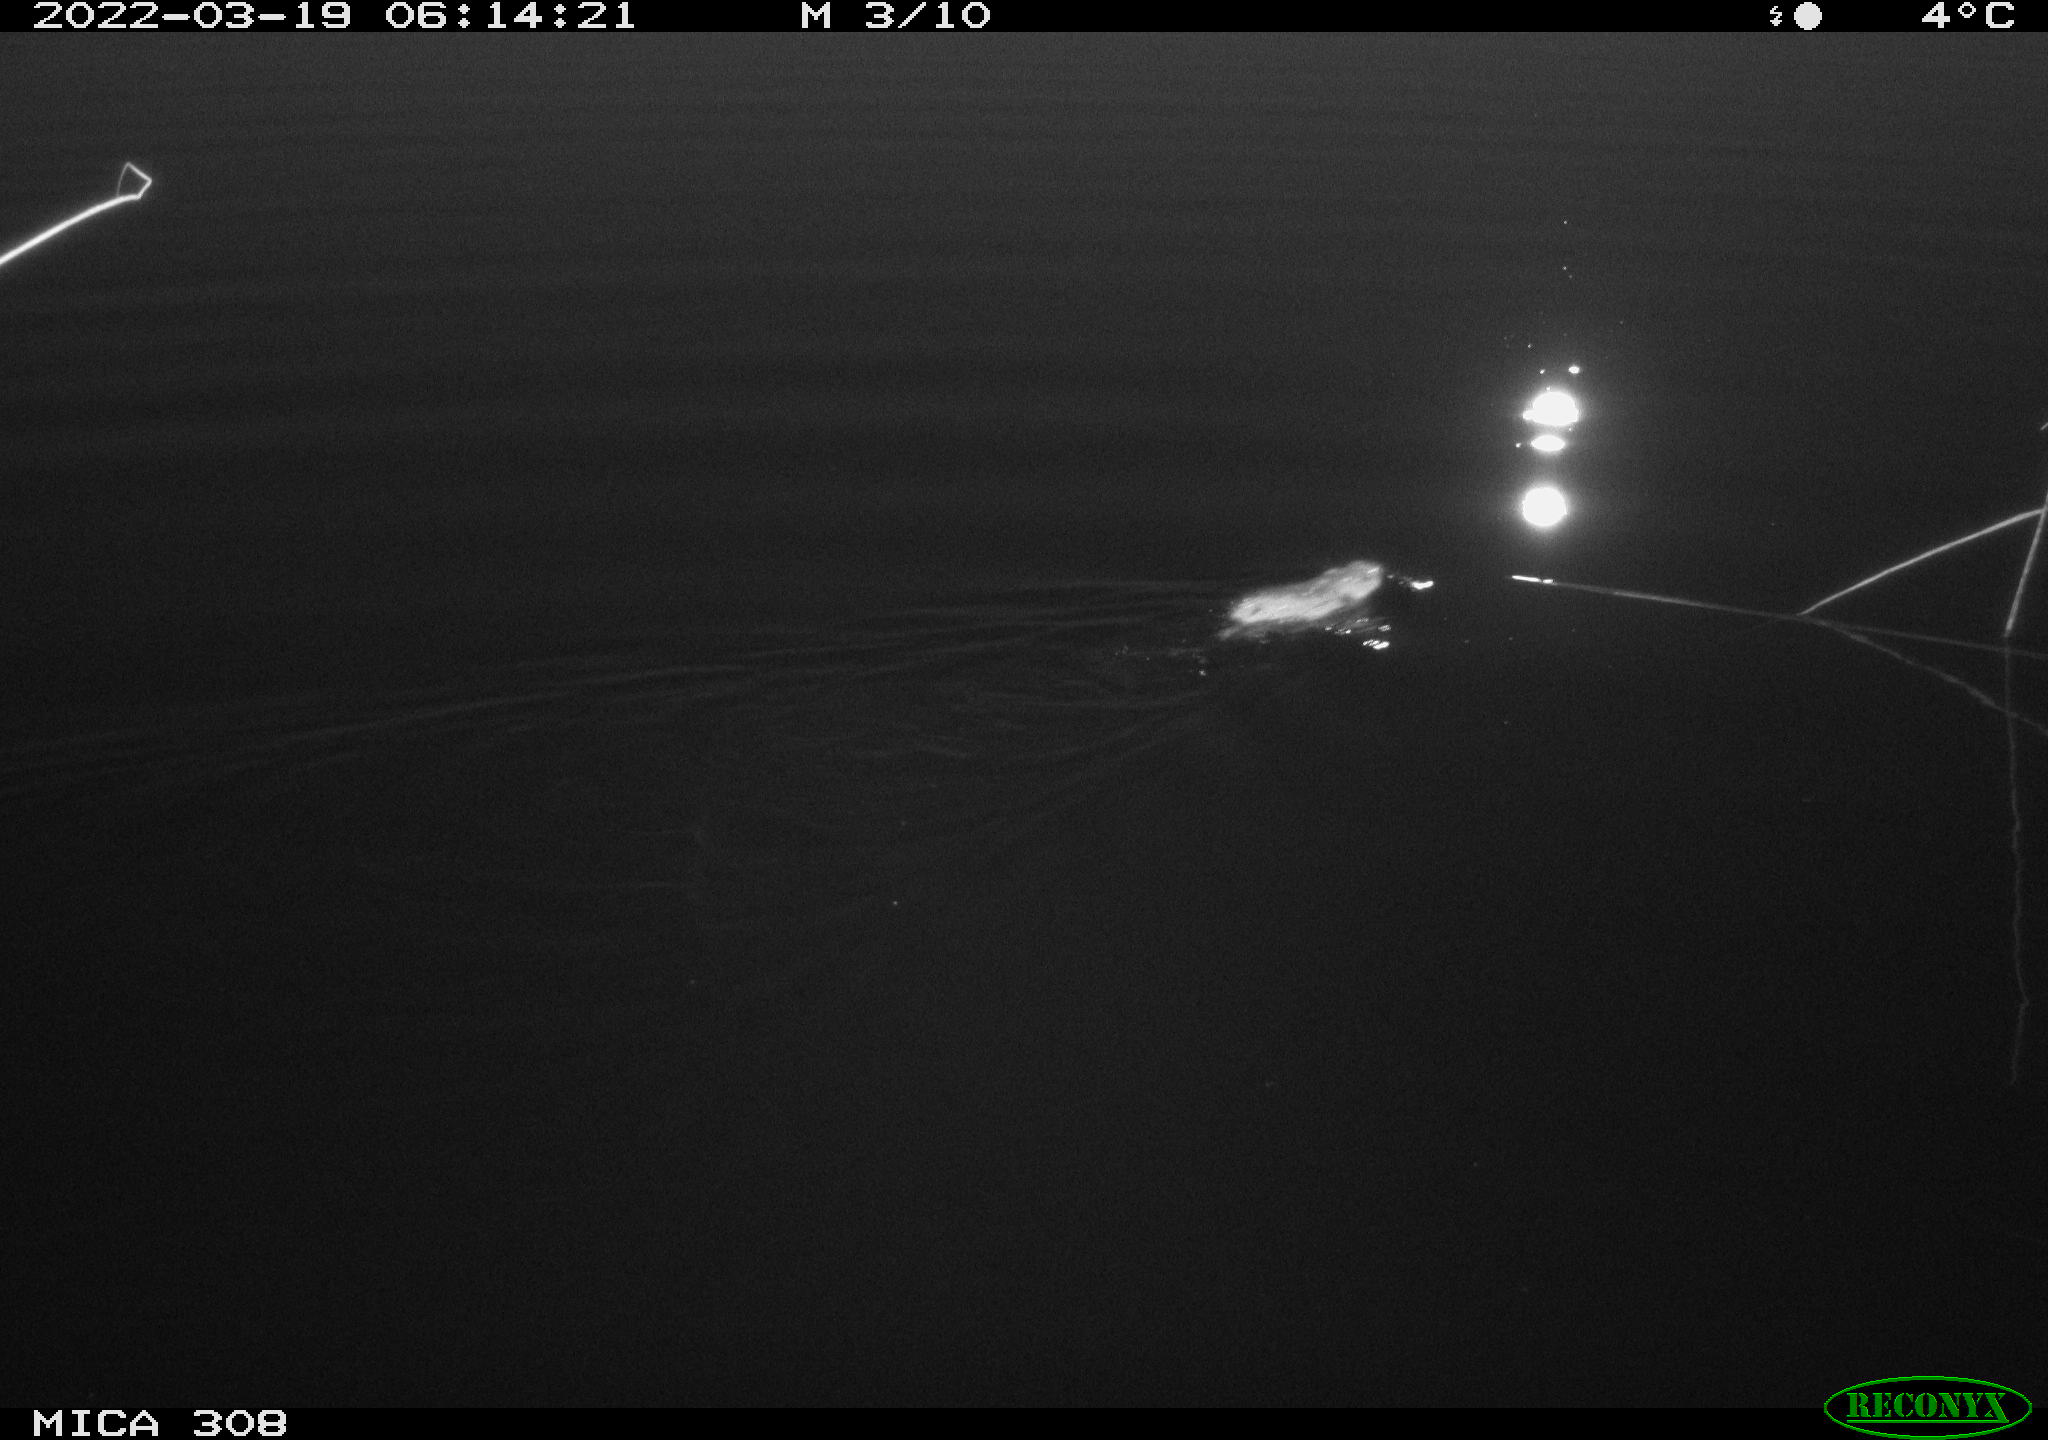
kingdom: Animalia
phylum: Chordata
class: Mammalia
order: Rodentia
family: Cricetidae
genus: Ondatra
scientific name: Ondatra zibethicus
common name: Muskrat
